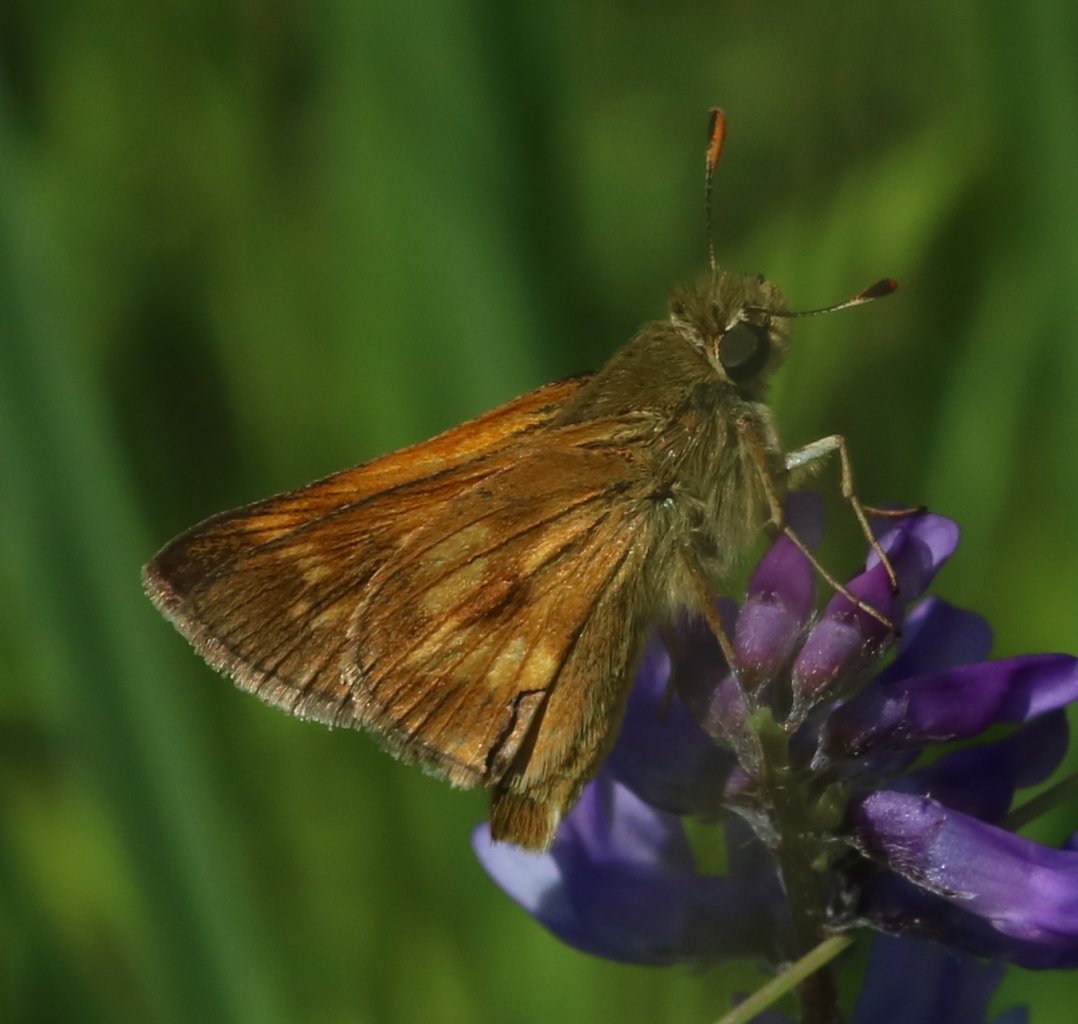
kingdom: Animalia
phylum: Arthropoda
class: Insecta
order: Lepidoptera
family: Hesperiidae
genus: Polites
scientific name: Polites
